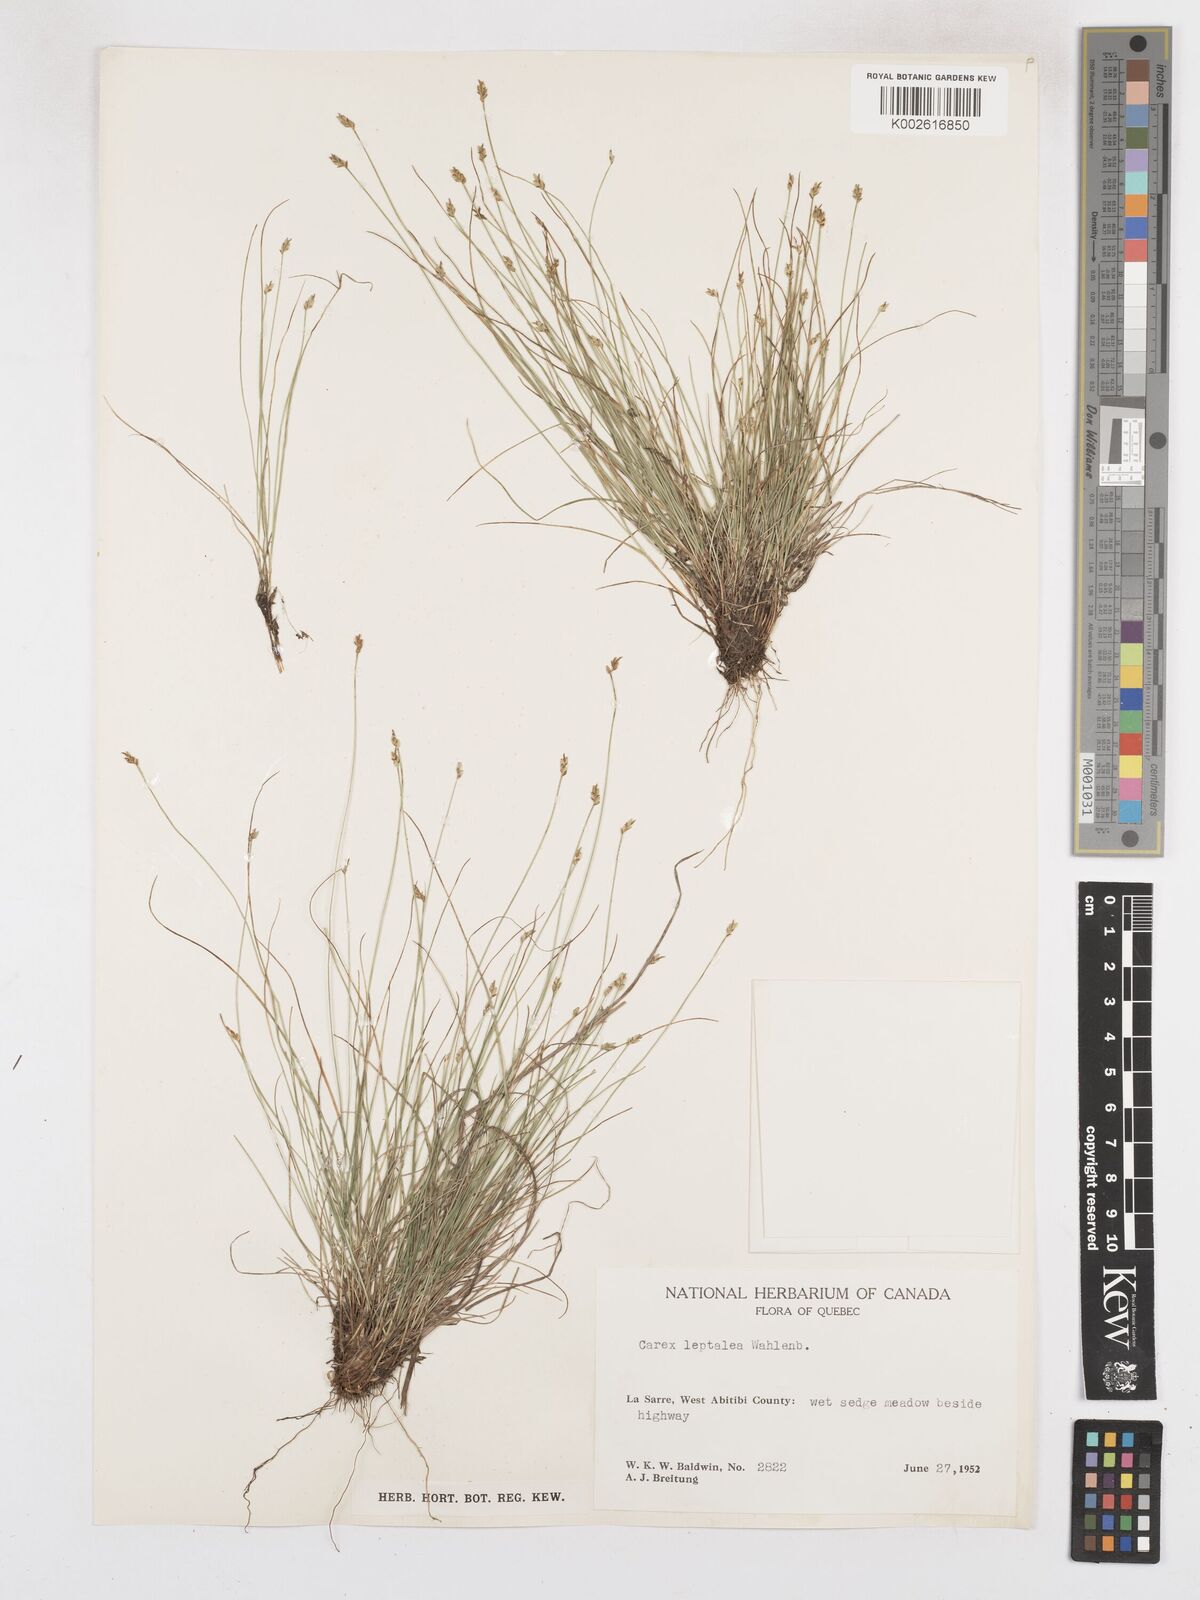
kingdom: Plantae
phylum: Tracheophyta
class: Liliopsida
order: Poales
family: Cyperaceae
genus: Carex
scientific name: Carex leptalea
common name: Bristly-stalked sedge
